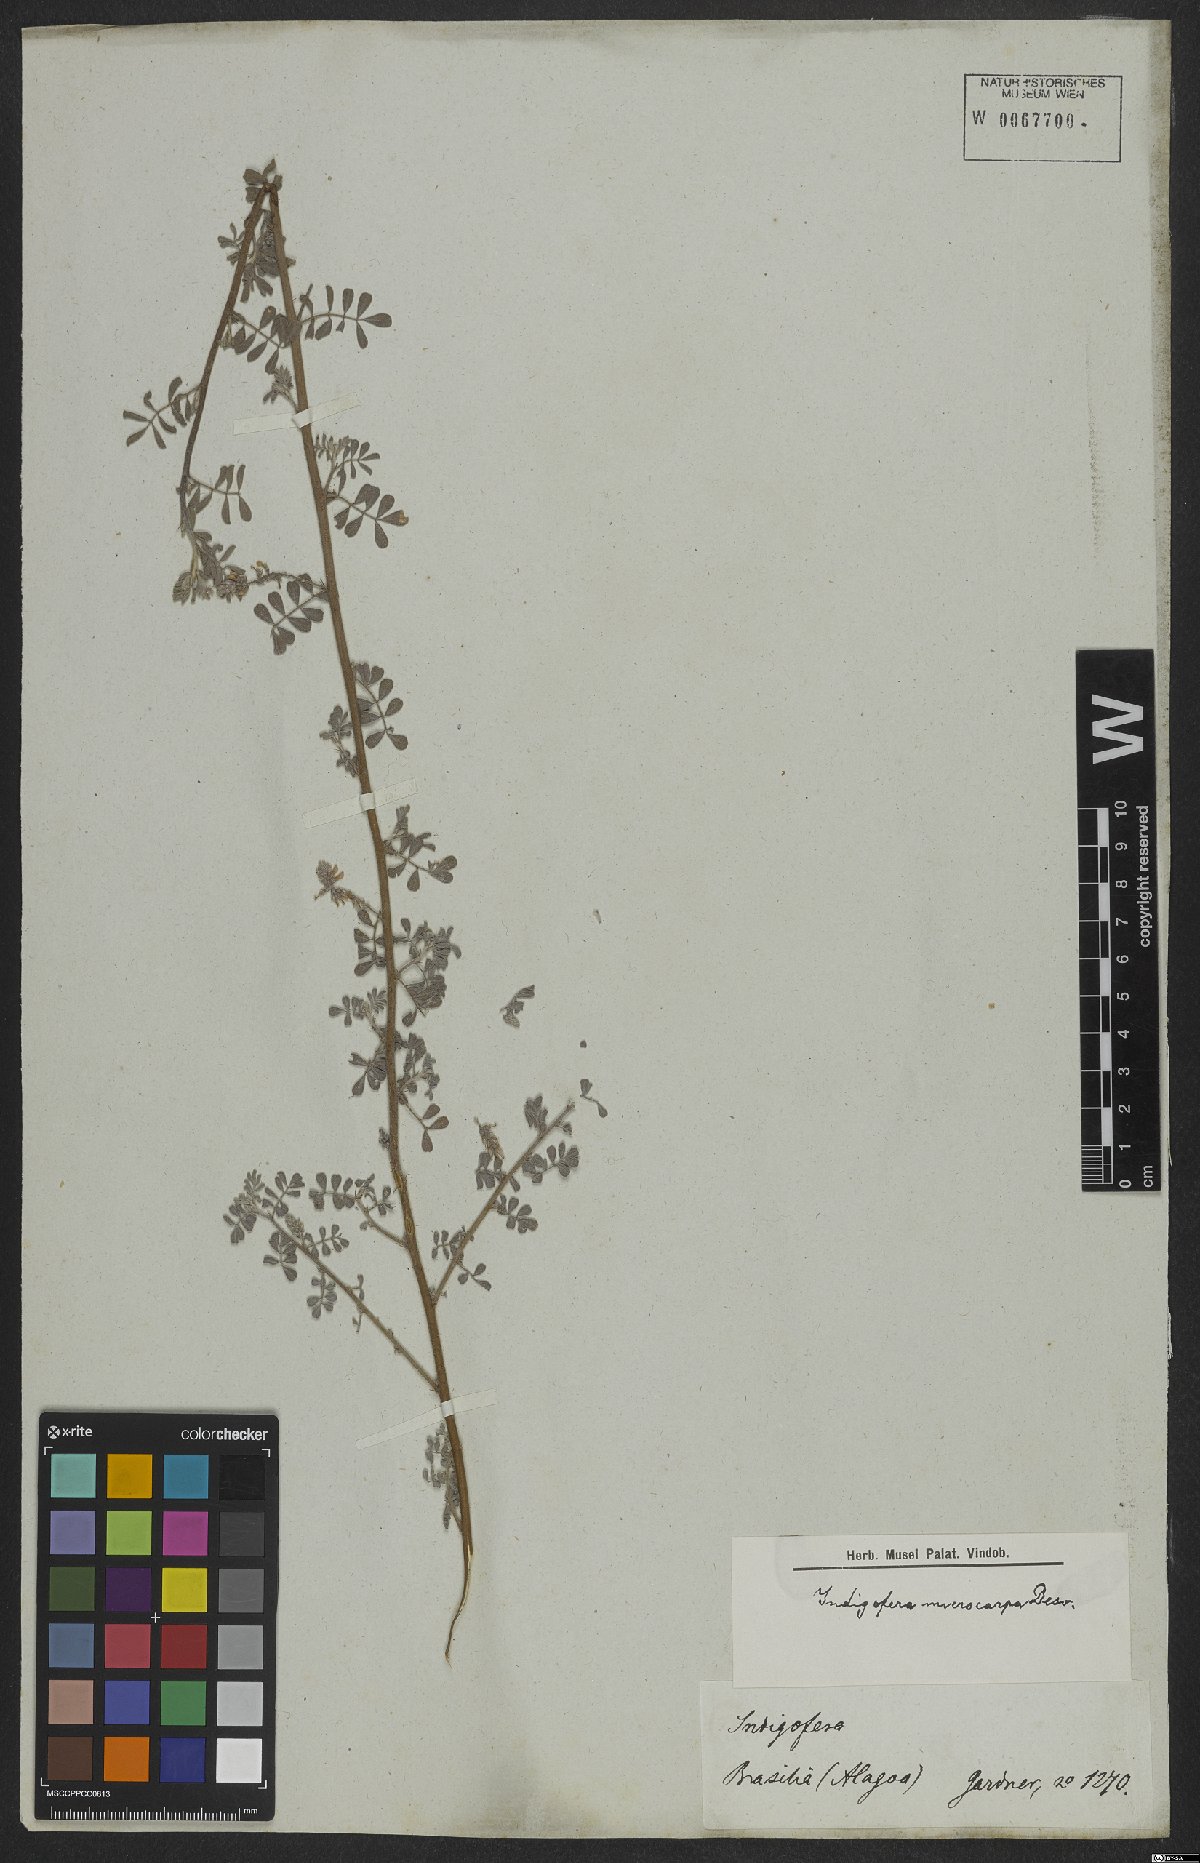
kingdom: Plantae
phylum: Tracheophyta
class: Magnoliopsida
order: Fabales
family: Fabaceae
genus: Indigofera
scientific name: Indigofera microcarpa
